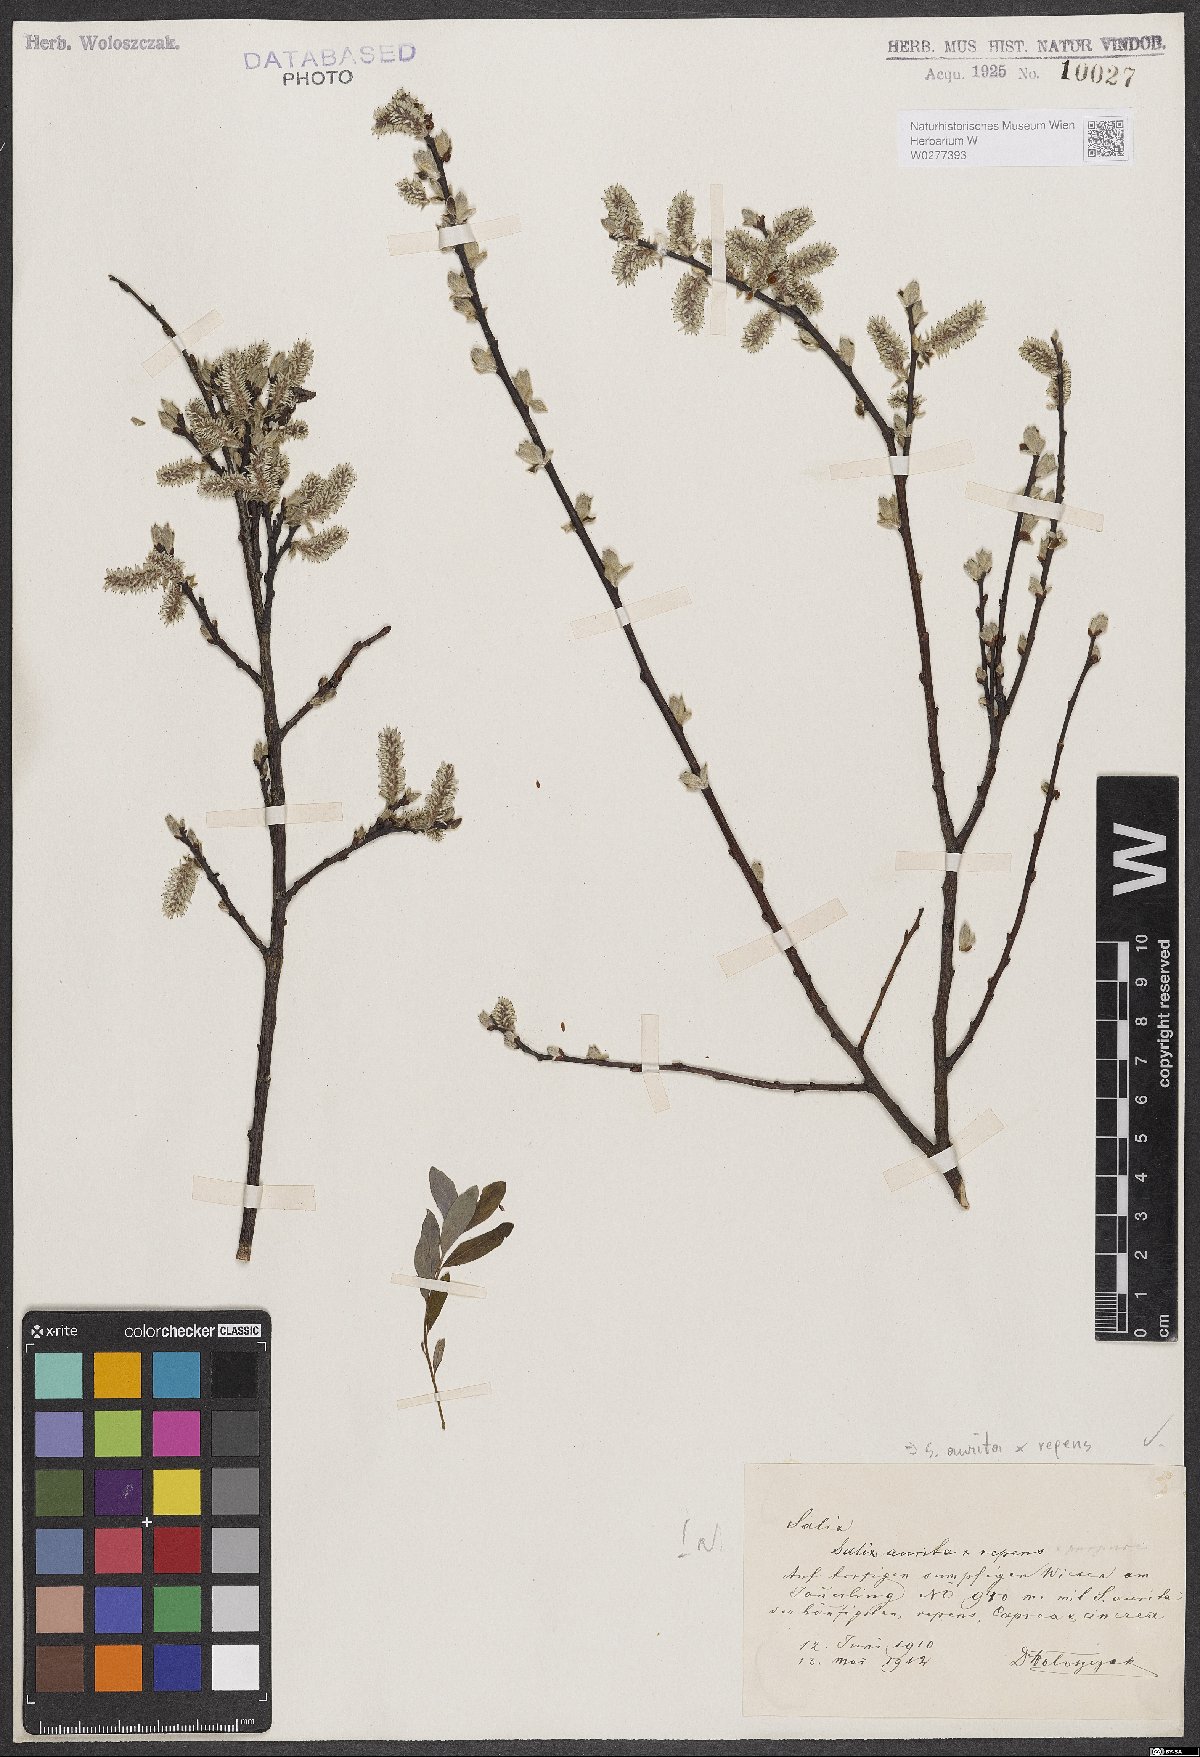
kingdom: Plantae
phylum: Tracheophyta
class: Magnoliopsida
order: Malpighiales
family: Salicaceae
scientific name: Salicaceae
